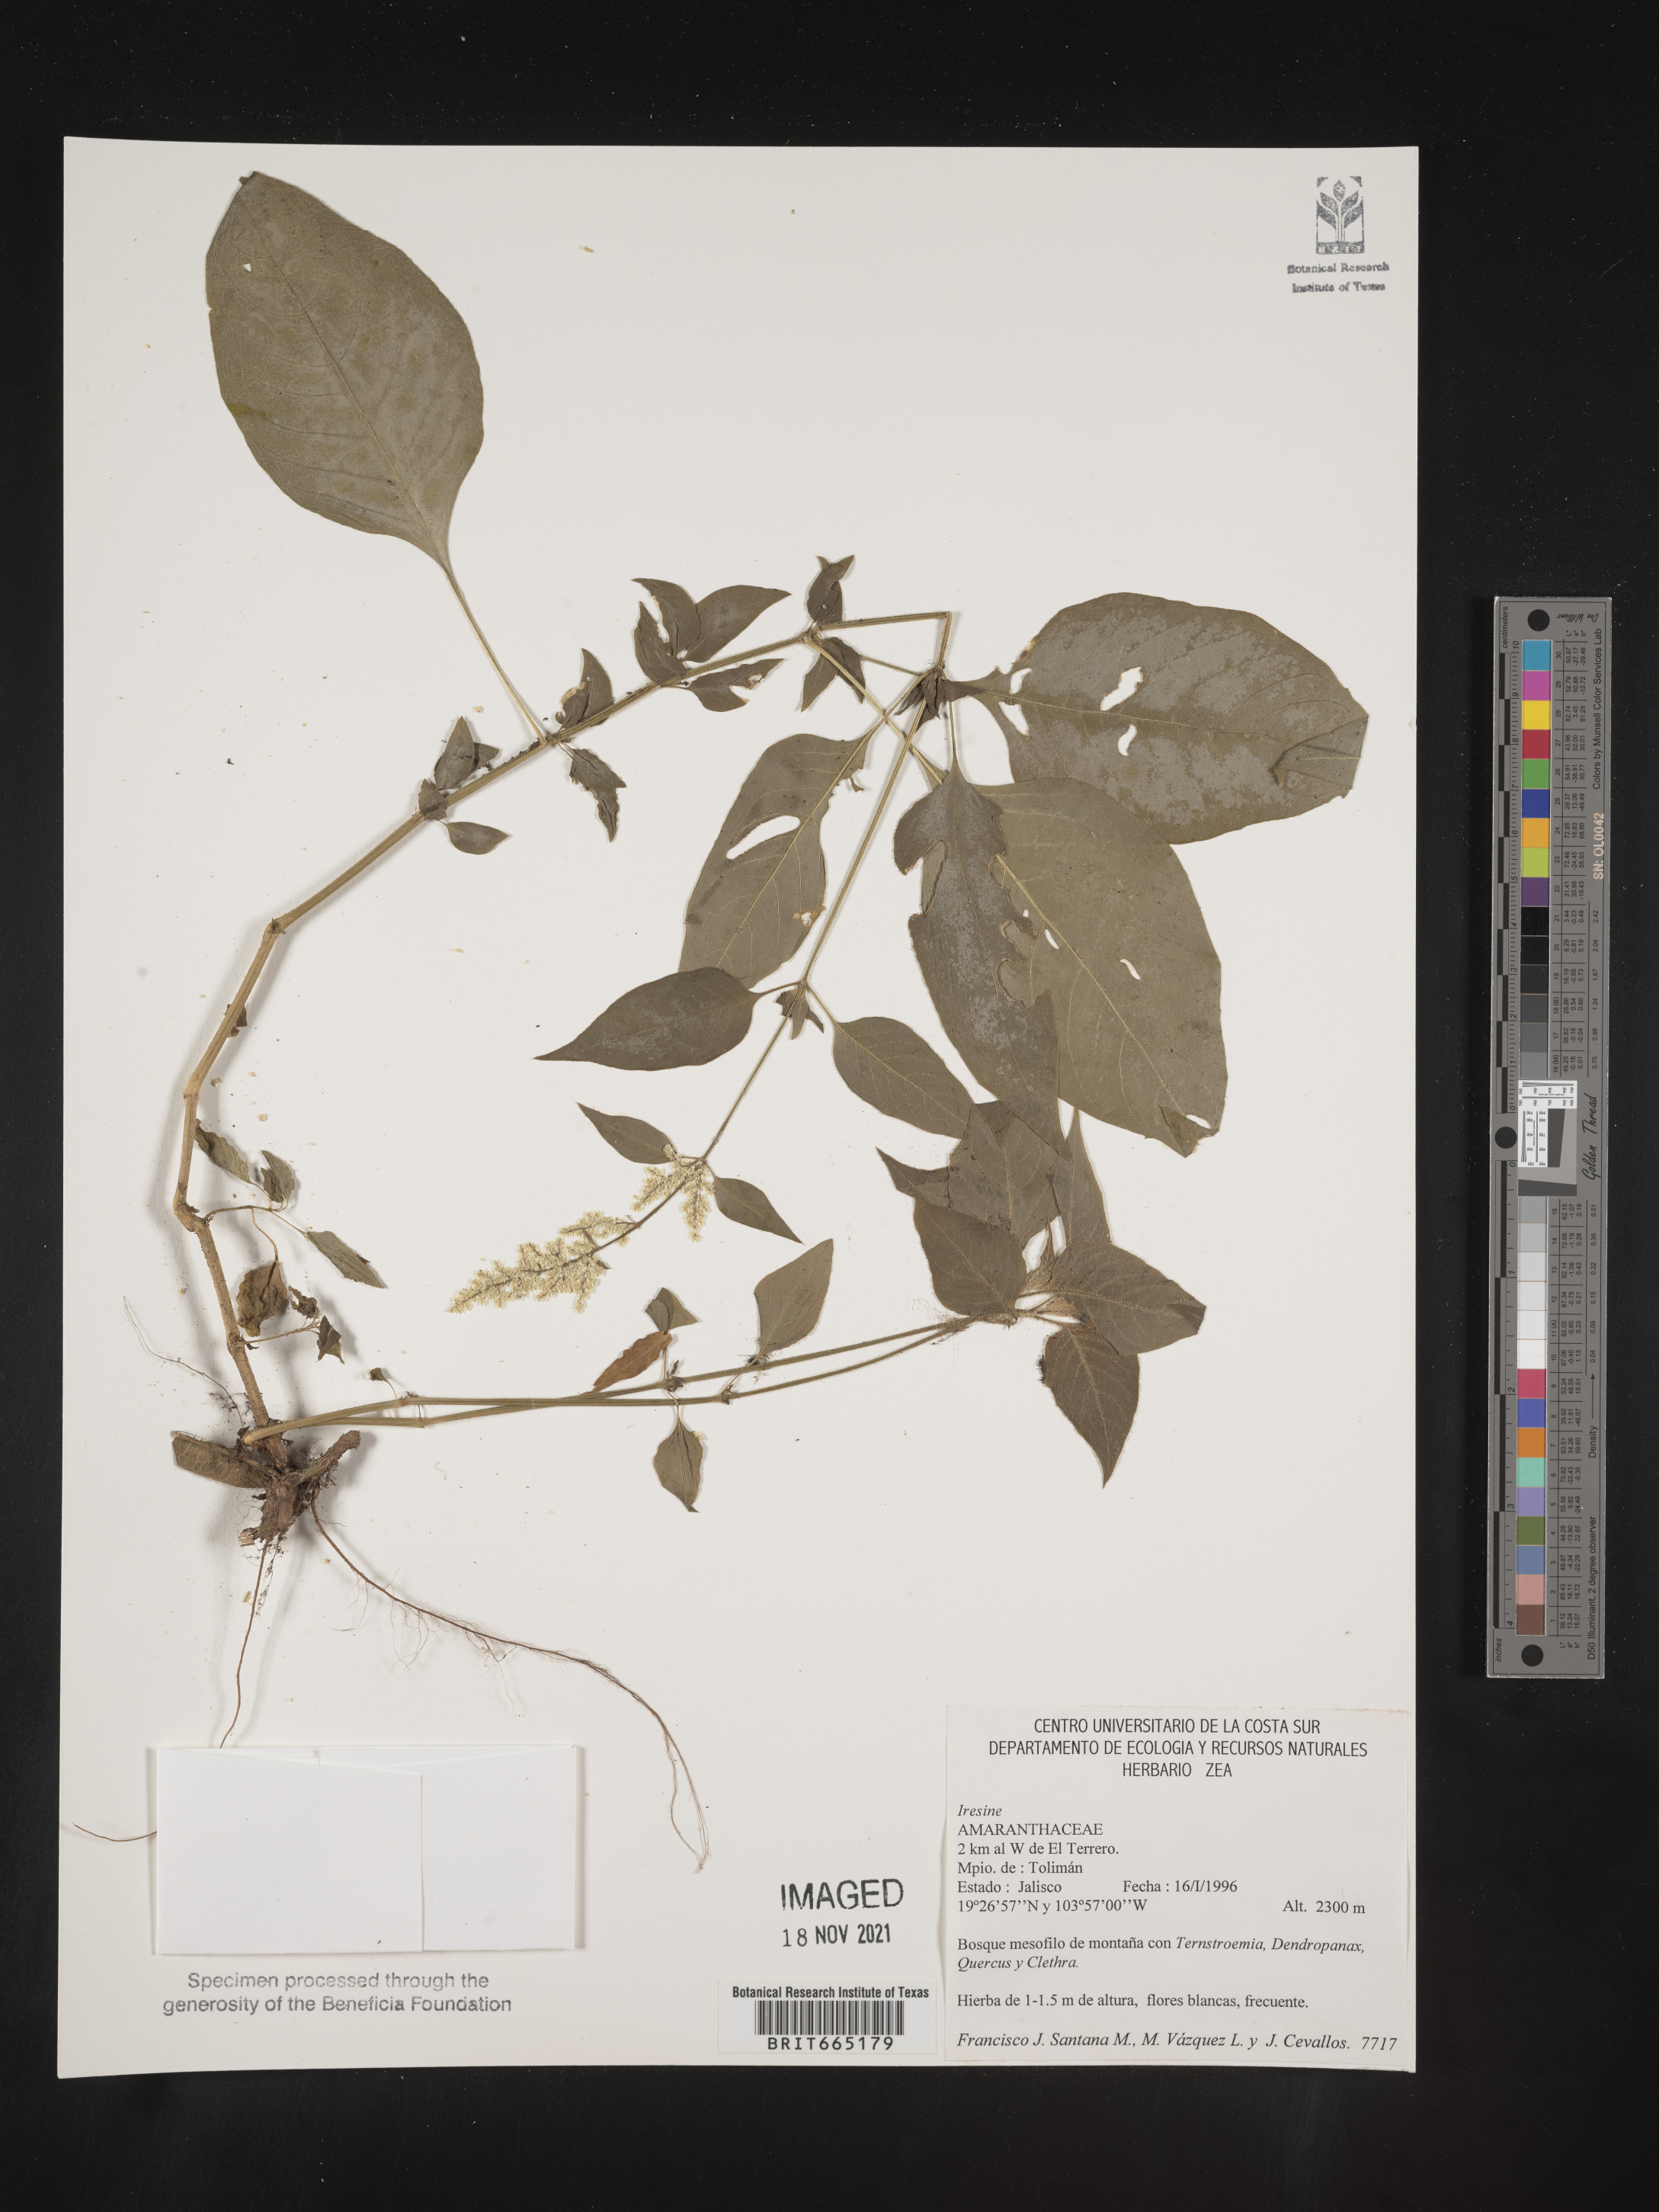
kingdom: Plantae
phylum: Tracheophyta
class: Magnoliopsida
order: Caryophyllales
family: Amaranthaceae
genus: Iresine
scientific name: Iresine
